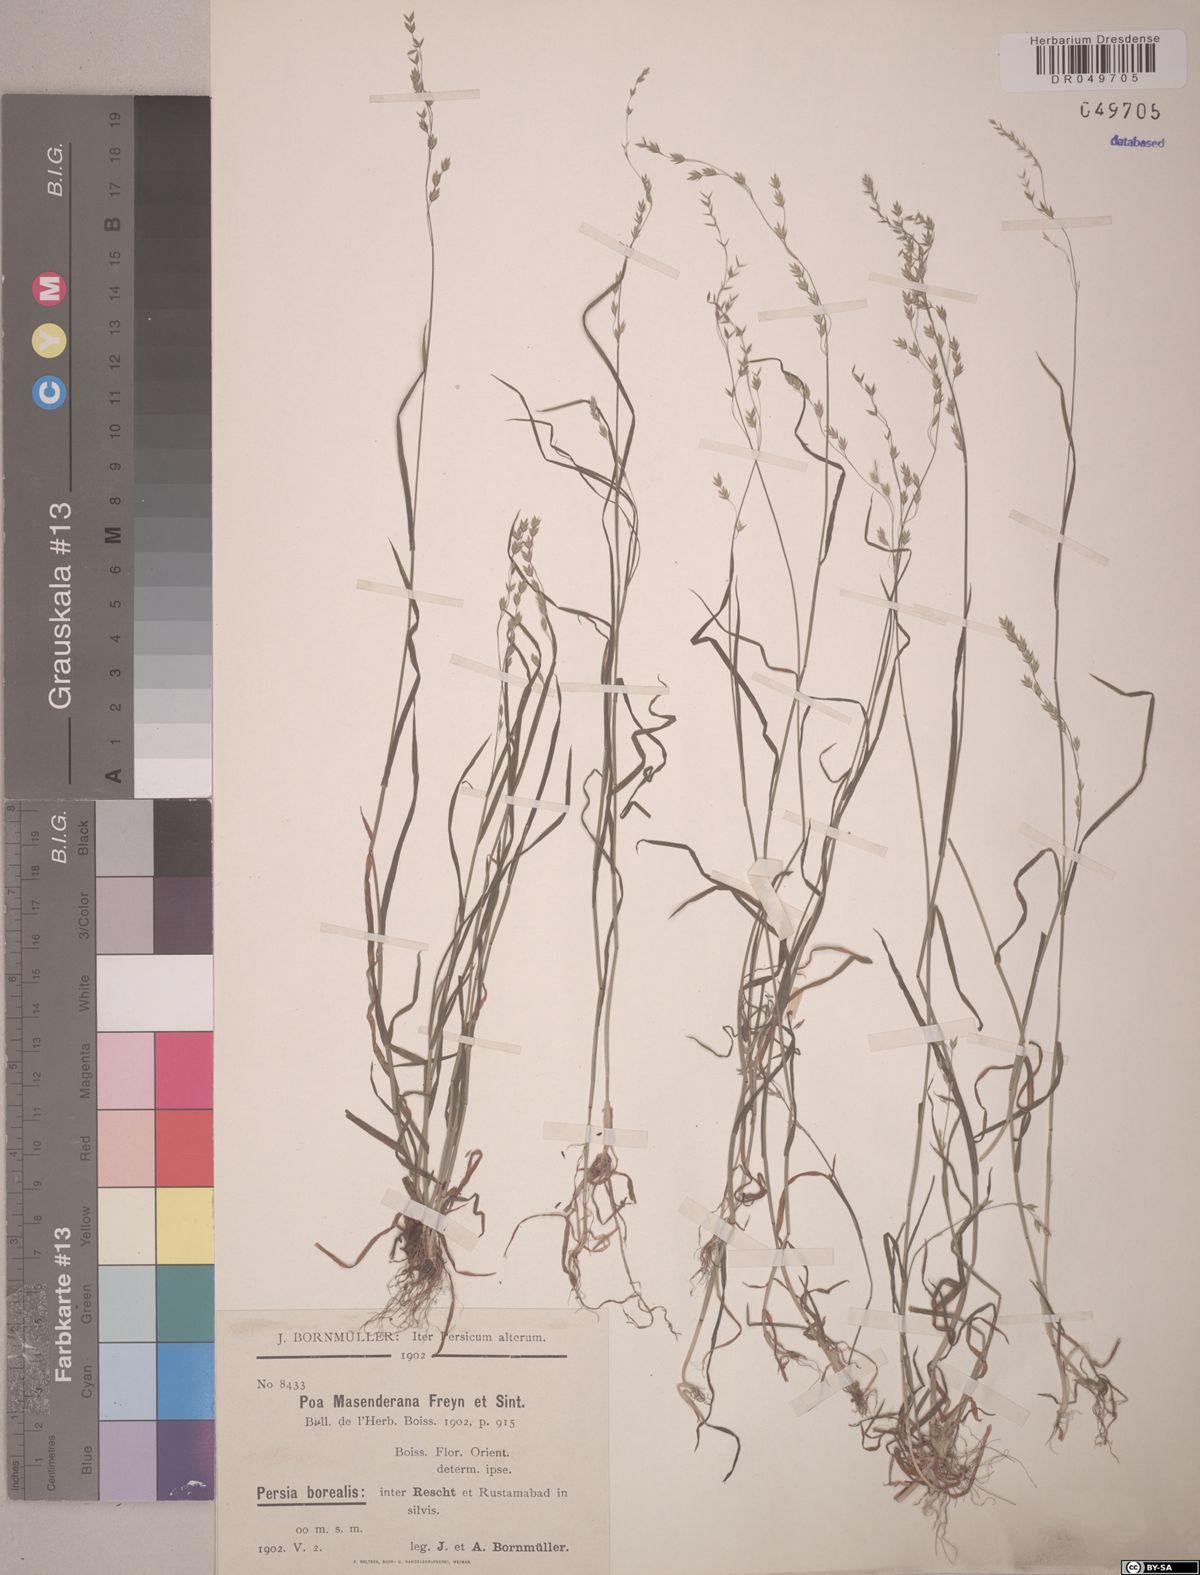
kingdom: Plantae
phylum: Tracheophyta
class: Liliopsida
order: Poales
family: Poaceae
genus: Poa
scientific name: Poa masenderana
